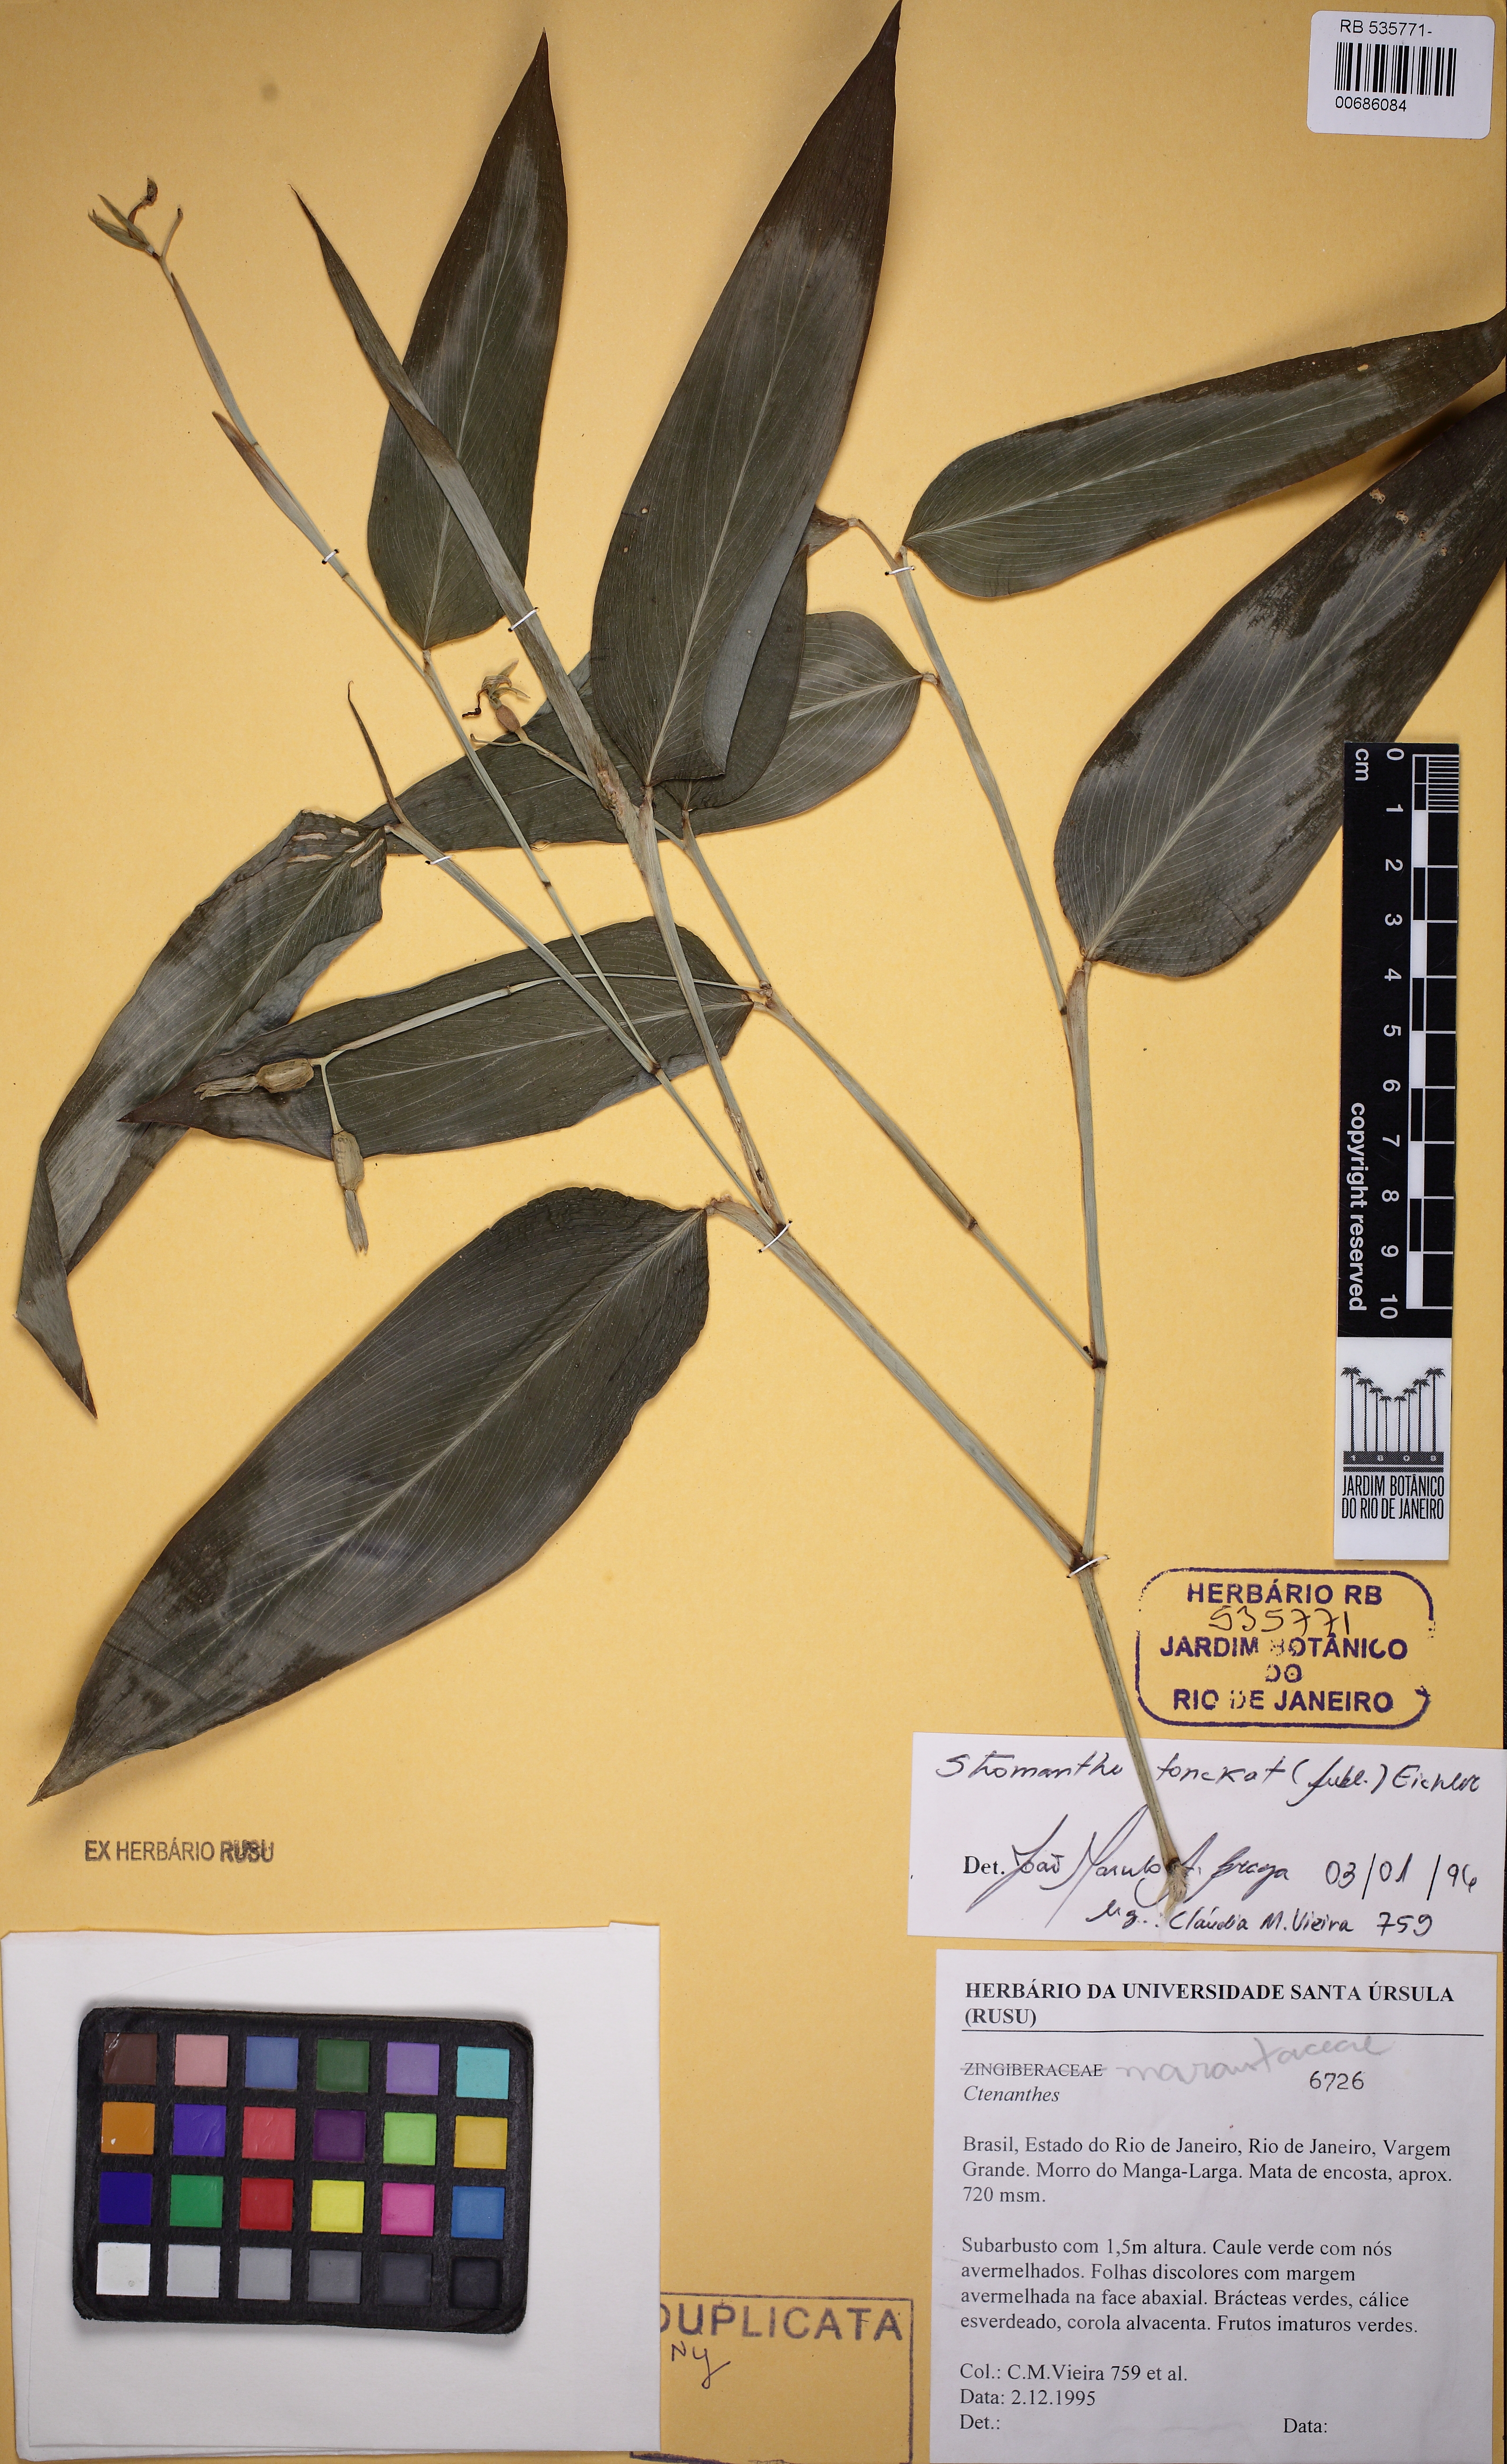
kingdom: Plantae
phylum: Tracheophyta
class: Liliopsida
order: Zingiberales
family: Marantaceae
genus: Stromanthe
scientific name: Stromanthe tonckat
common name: Stromanthe
